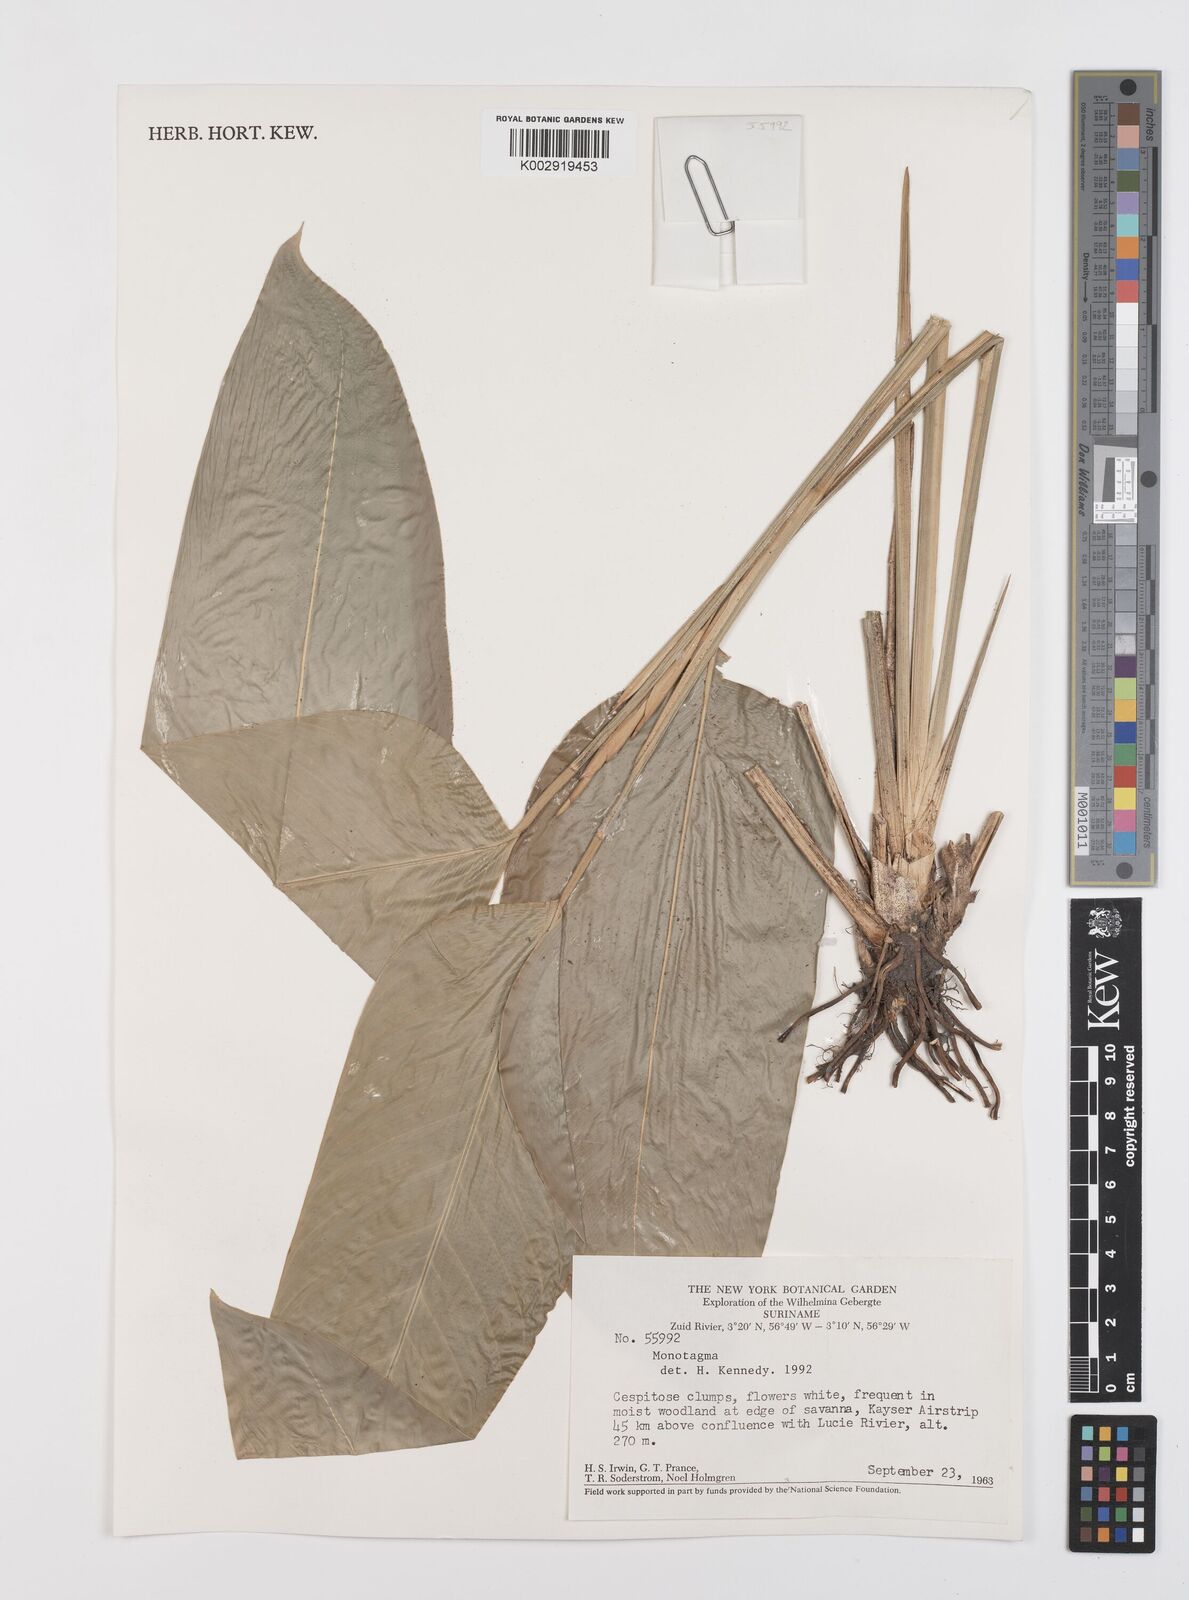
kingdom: Plantae
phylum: Tracheophyta
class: Liliopsida
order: Zingiberales
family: Marantaceae
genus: Monotagma
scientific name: Monotagma secundum
